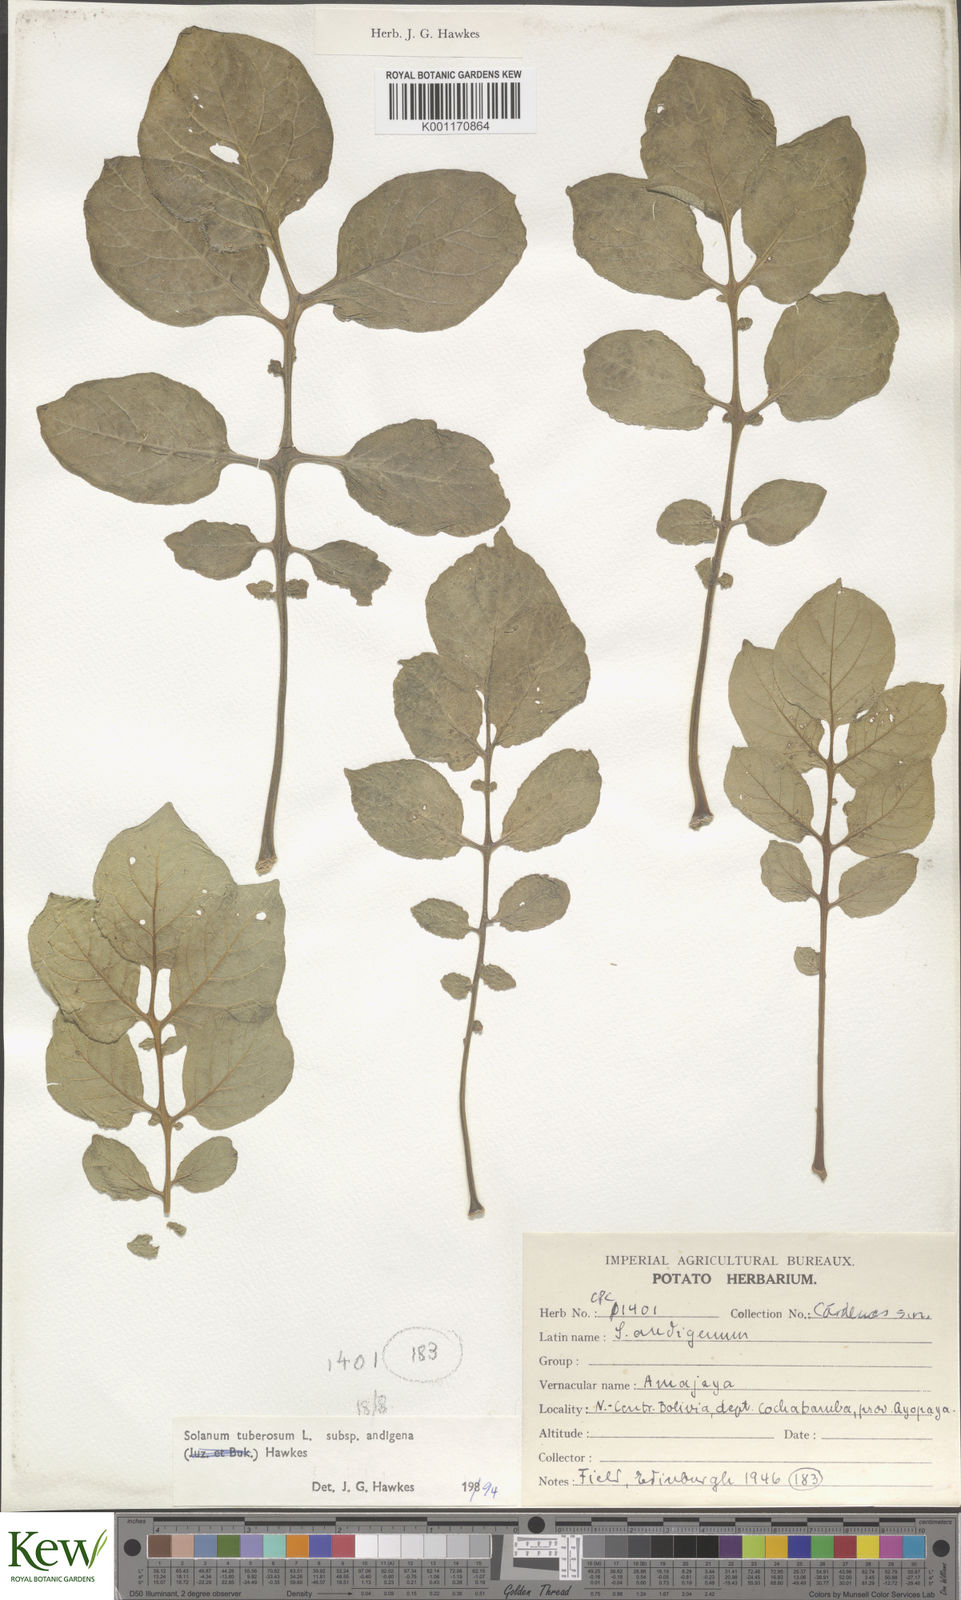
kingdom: Plantae
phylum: Tracheophyta
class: Magnoliopsida
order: Solanales
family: Solanaceae
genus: Solanum
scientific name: Solanum tuberosum
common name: Potato
